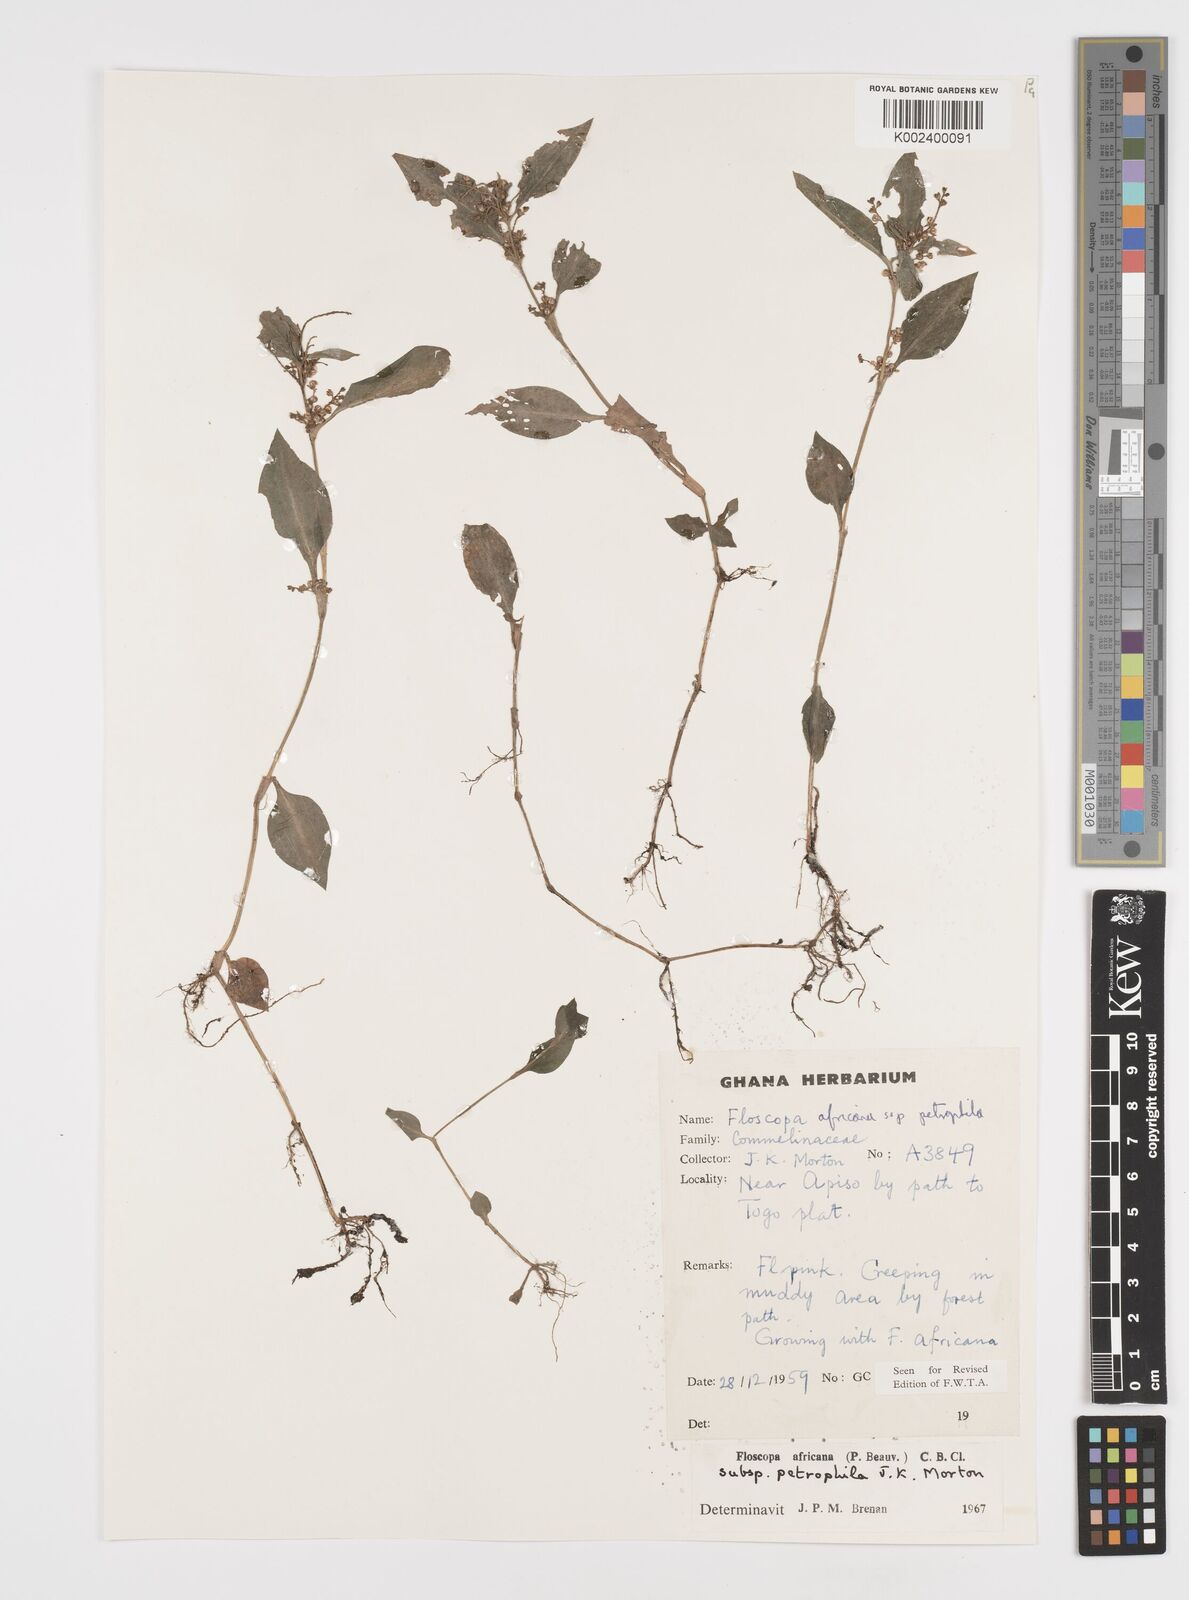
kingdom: Plantae
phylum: Tracheophyta
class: Liliopsida
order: Commelinales
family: Commelinaceae
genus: Floscopa
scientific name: Floscopa africana
